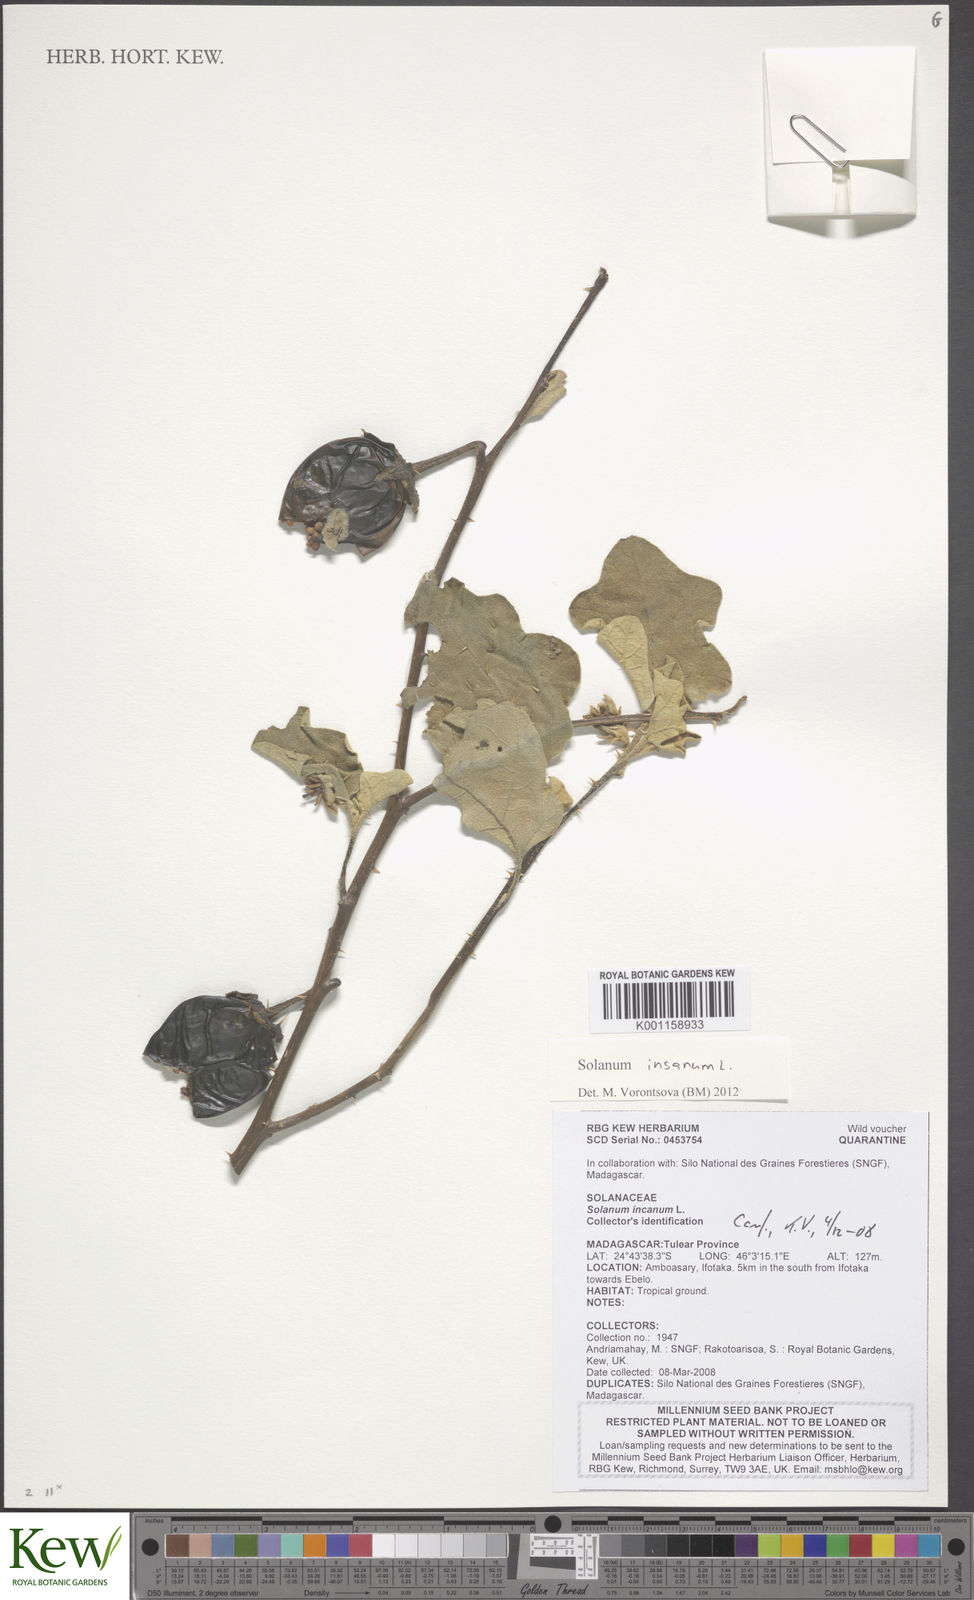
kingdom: Plantae
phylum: Tracheophyta
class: Magnoliopsida
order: Solanales
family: Solanaceae
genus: Solanum
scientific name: Solanum insanum
